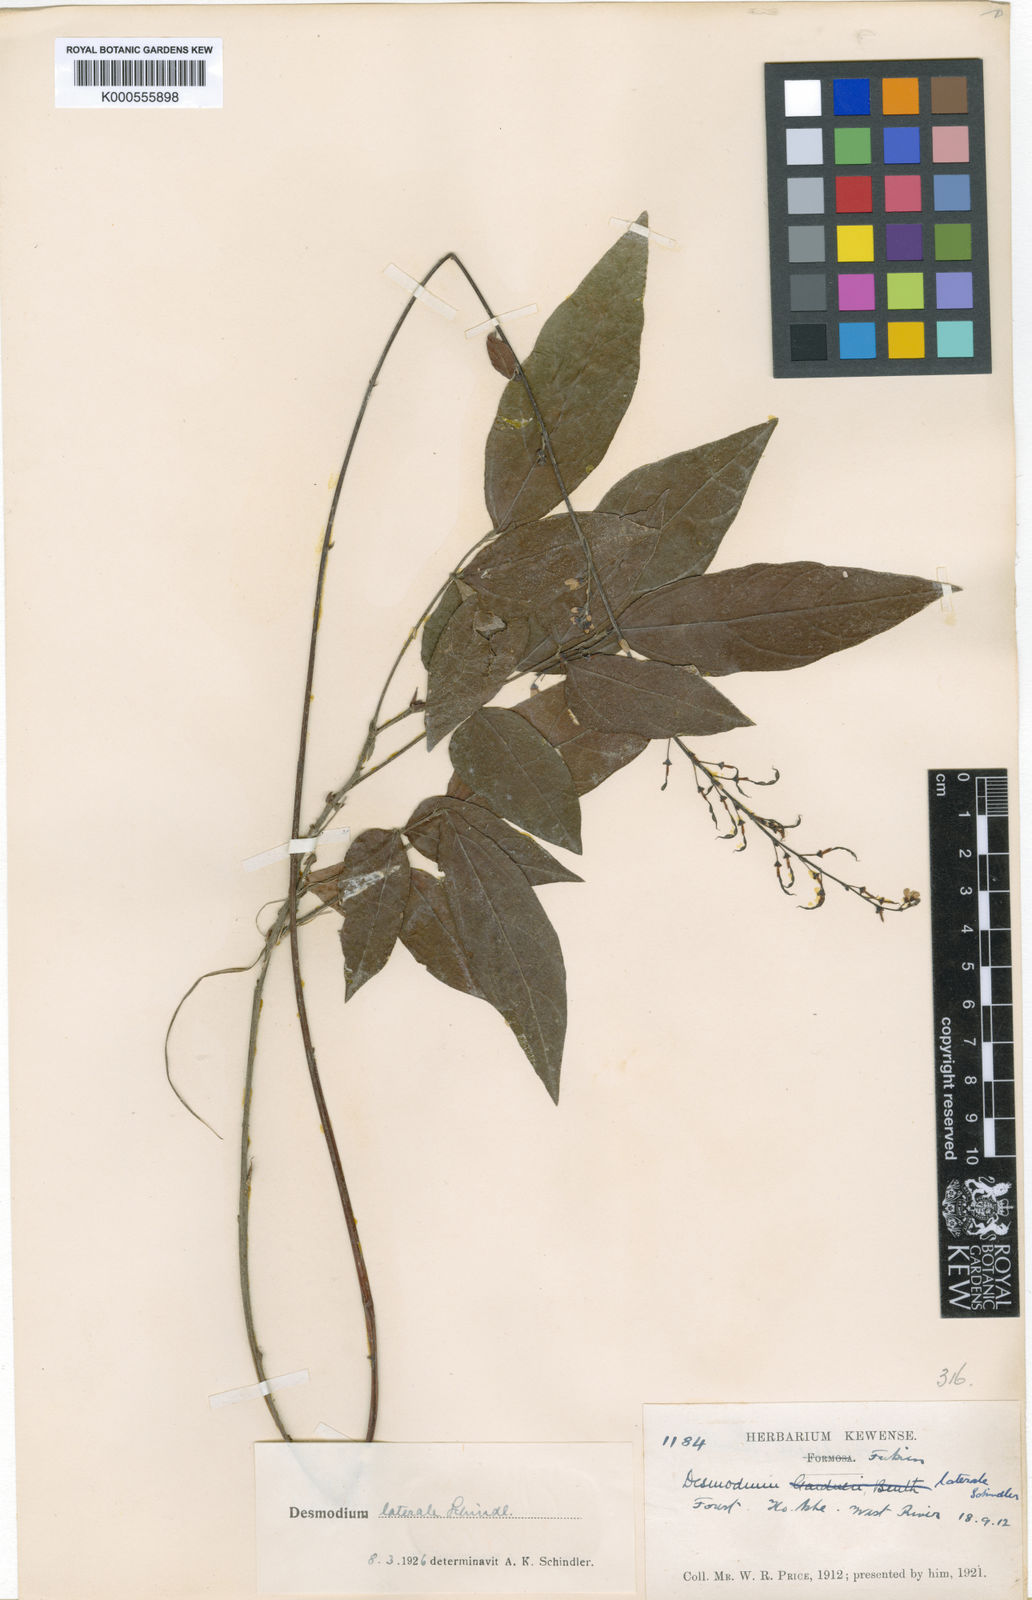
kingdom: Plantae
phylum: Tracheophyta
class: Magnoliopsida
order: Fabales
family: Fabaceae
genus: Hylodesmum
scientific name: Hylodesmum laterale
